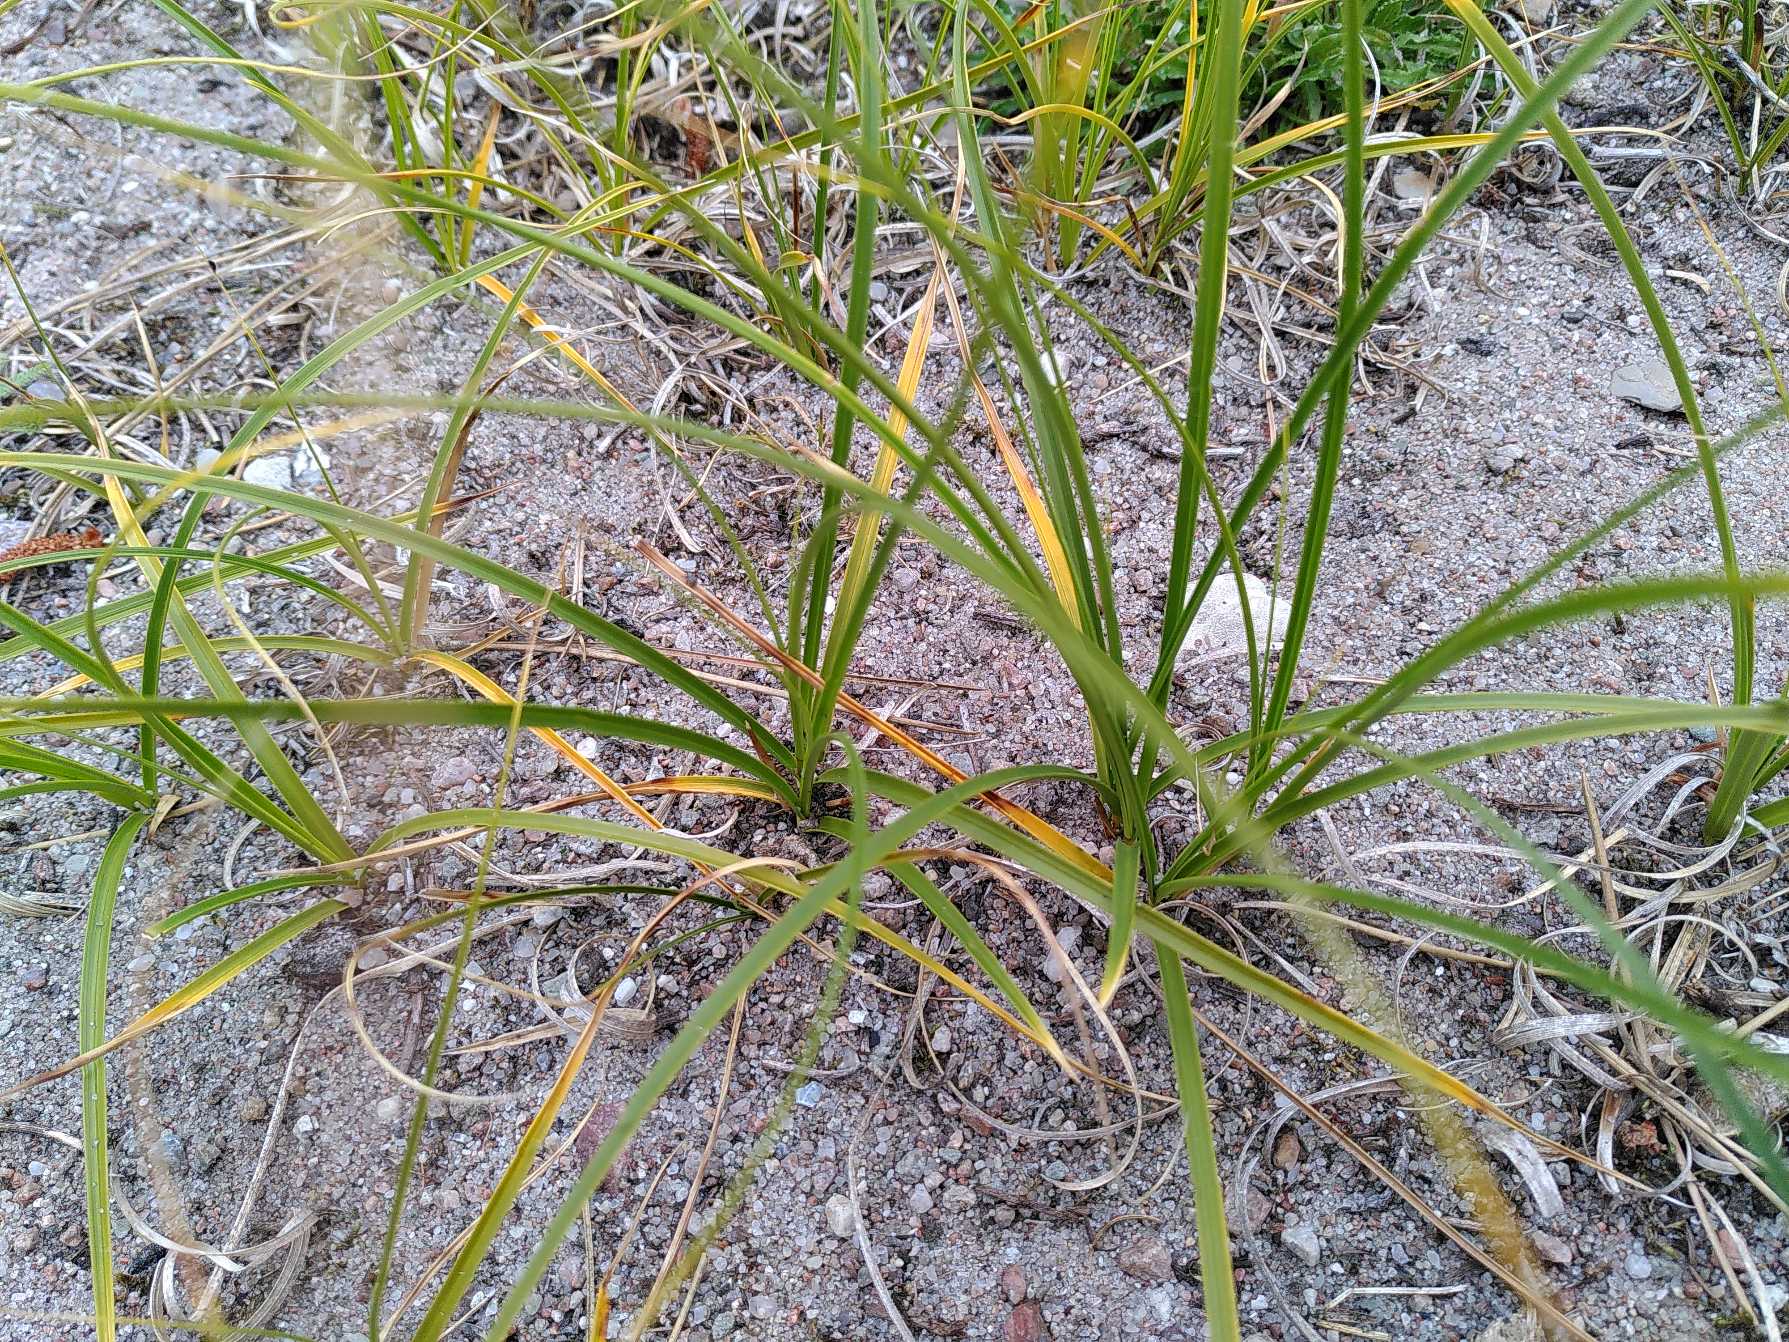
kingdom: Plantae
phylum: Tracheophyta
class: Liliopsida
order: Poales
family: Cyperaceae
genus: Carex
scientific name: Carex arenaria
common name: Sand-star
